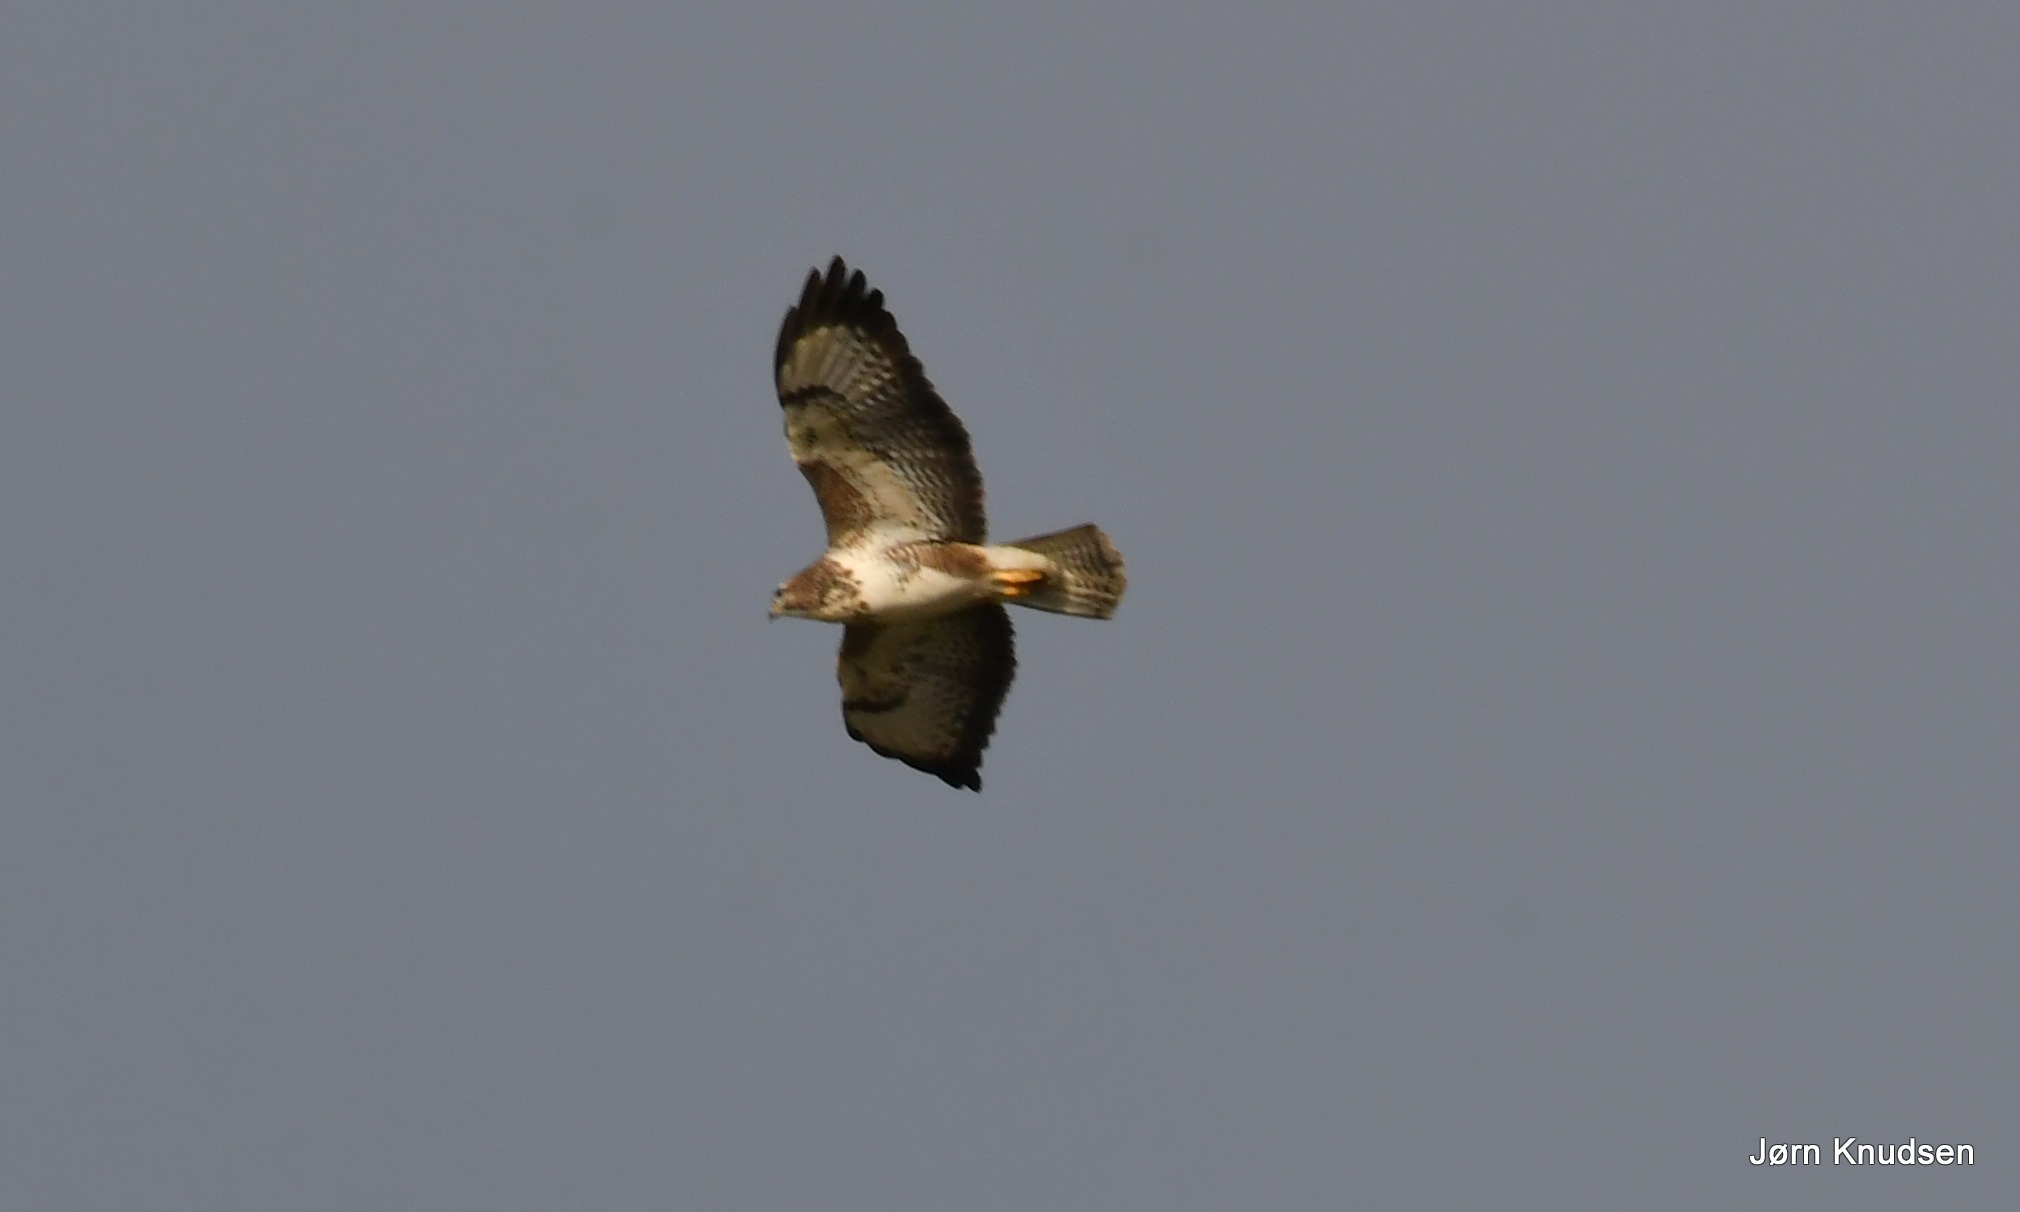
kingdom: Animalia
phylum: Chordata
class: Aves
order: Accipitriformes
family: Accipitridae
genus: Buteo
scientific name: Buteo buteo
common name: Musvåge
